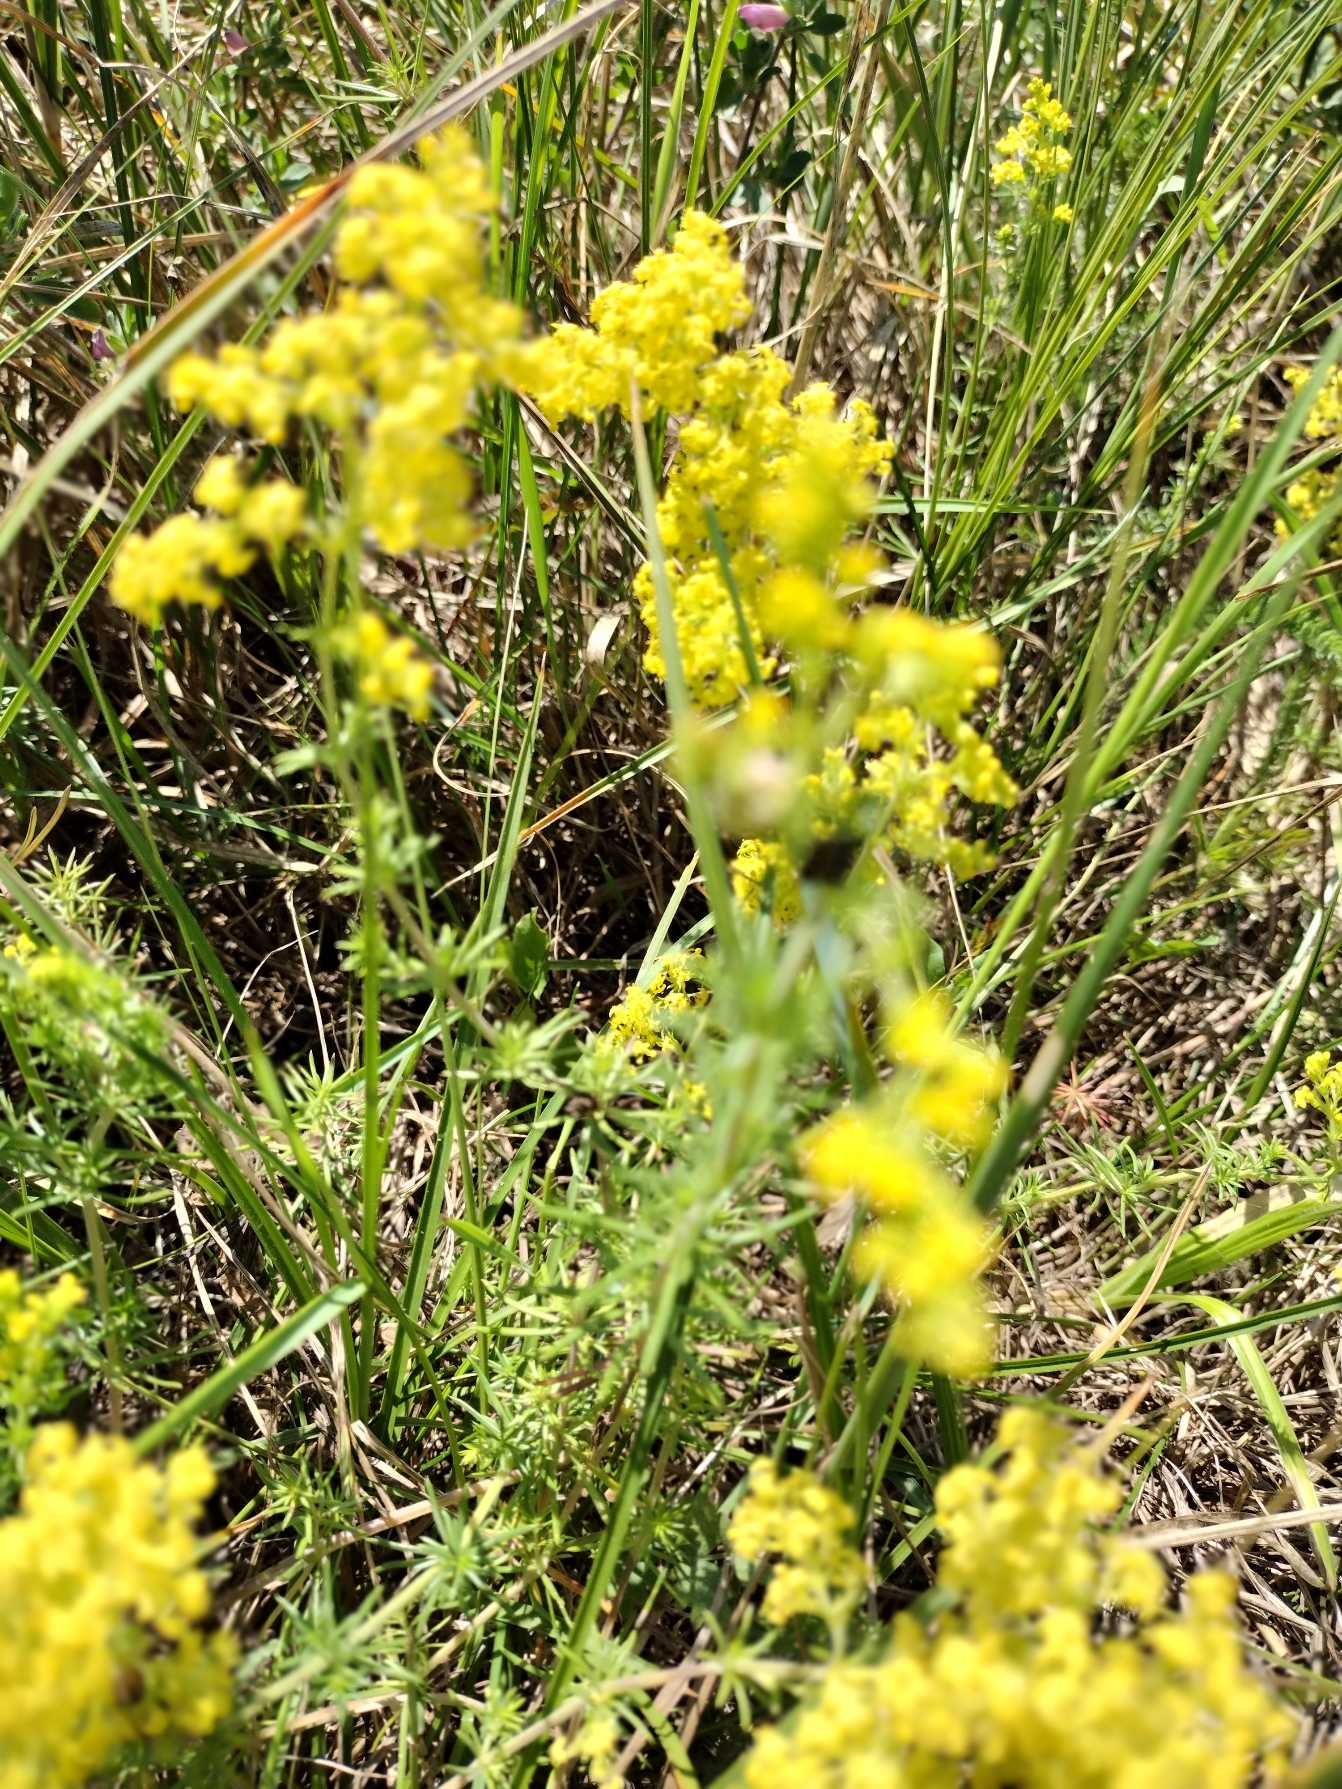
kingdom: Plantae
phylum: Tracheophyta
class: Magnoliopsida
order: Gentianales
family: Rubiaceae
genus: Galium
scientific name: Galium verum
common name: Gul snerre
